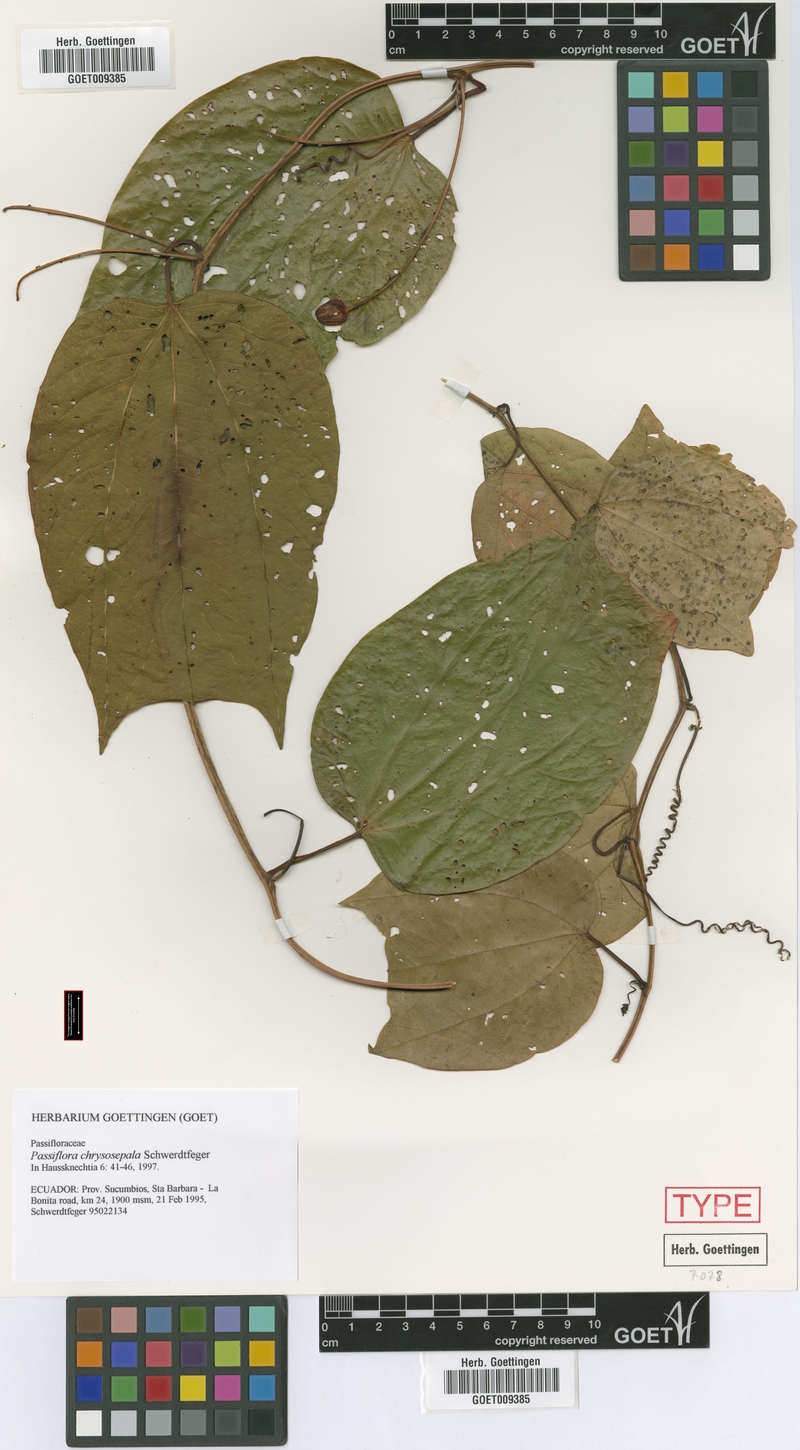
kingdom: Plantae
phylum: Tracheophyta
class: Magnoliopsida
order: Malpighiales
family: Passifloraceae
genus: Passiflora
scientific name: Passiflora chrysosepala
